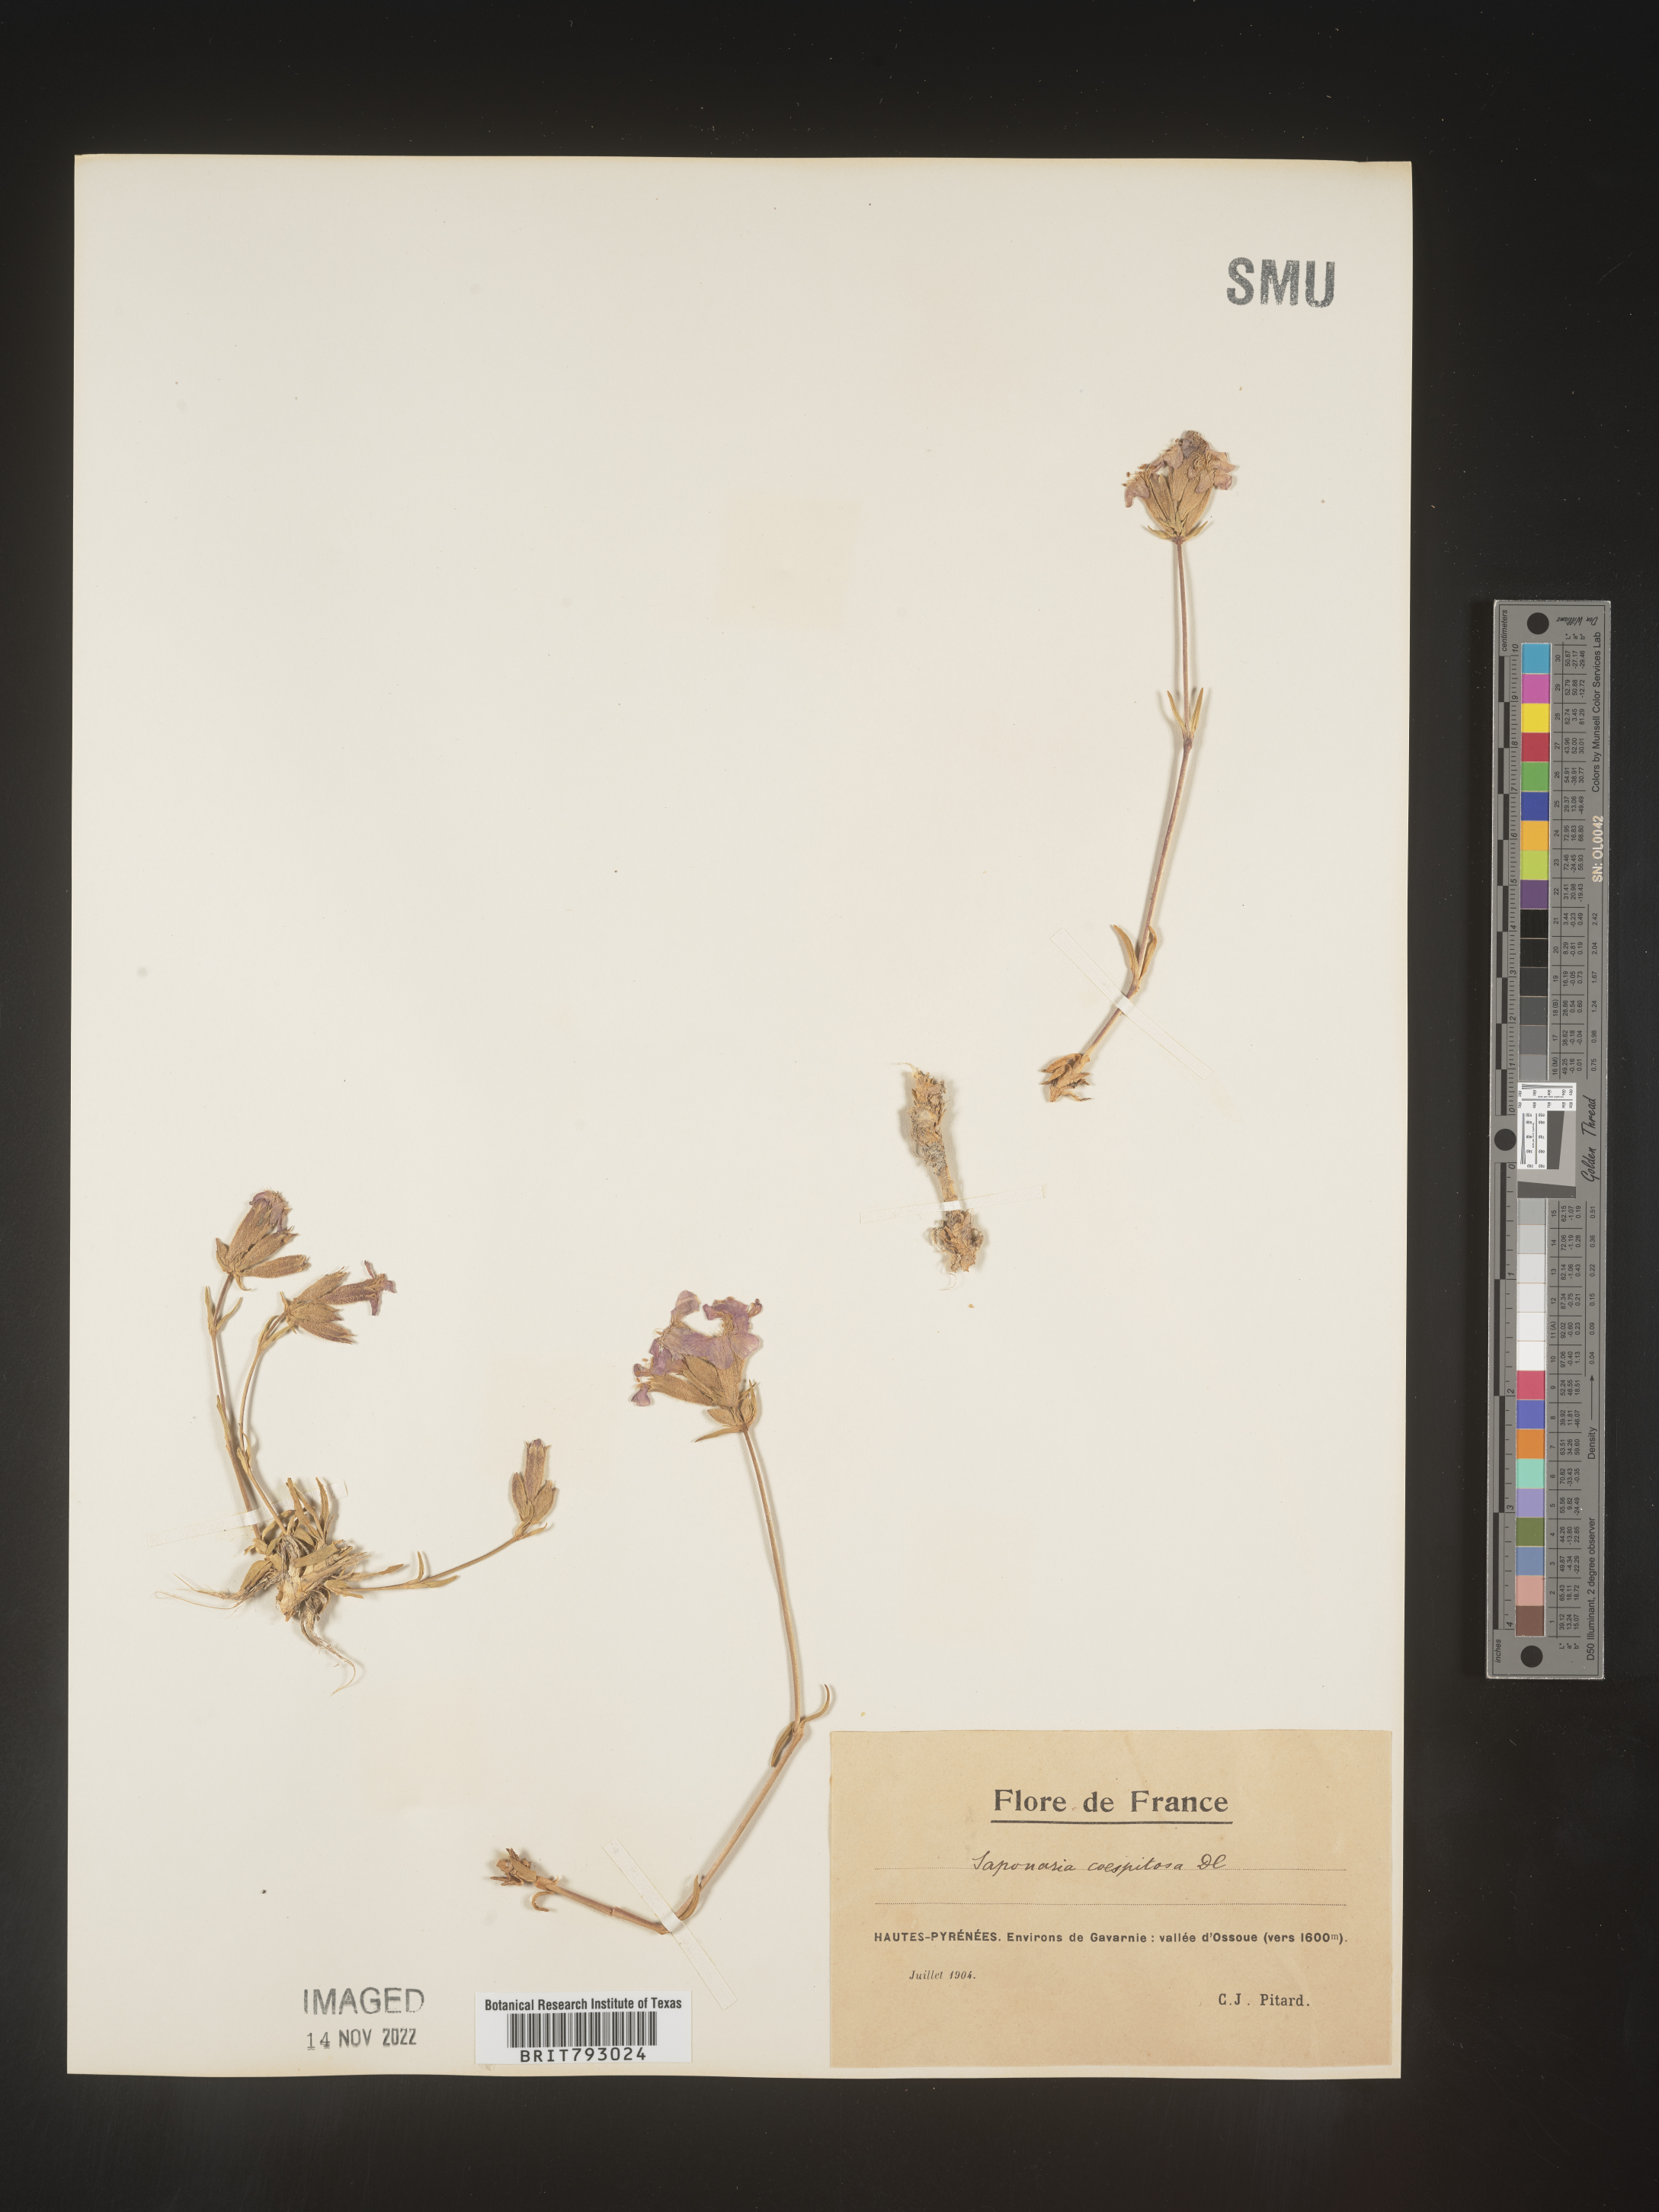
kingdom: Plantae
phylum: Tracheophyta
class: Magnoliopsida
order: Caryophyllales
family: Caryophyllaceae
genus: Saponaria
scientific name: Saponaria
